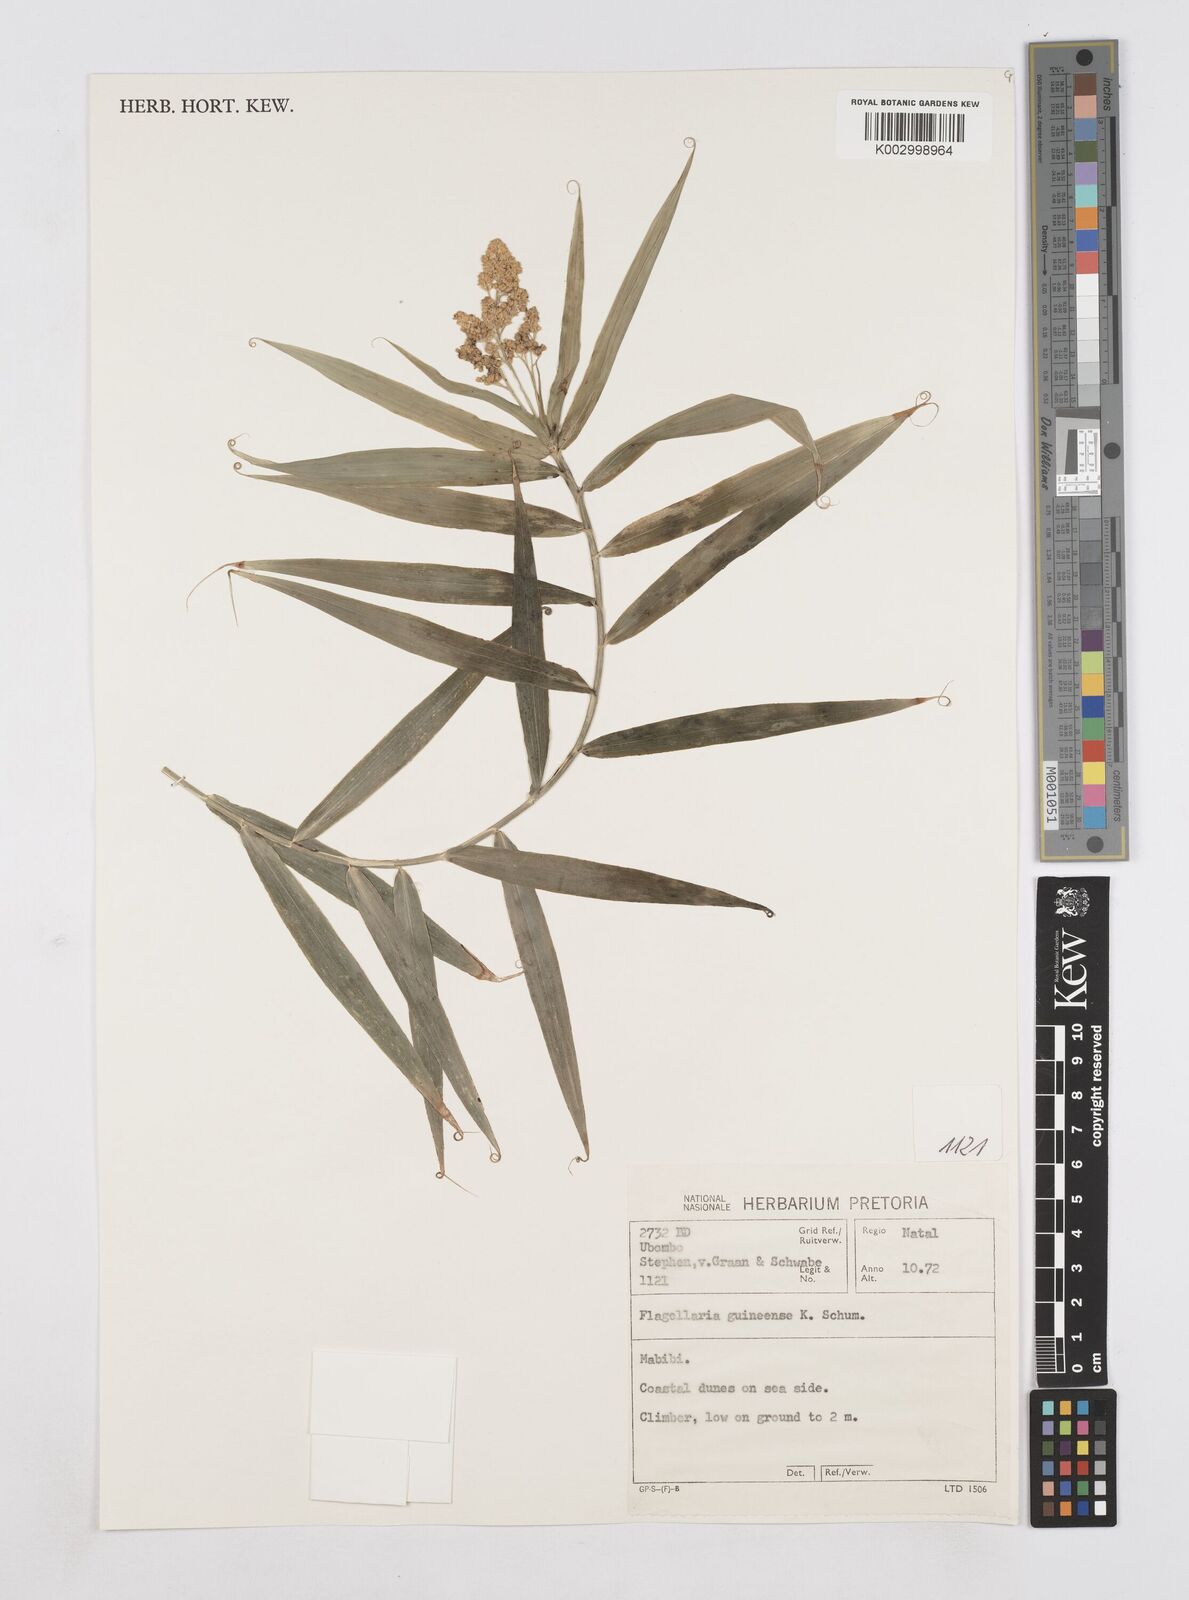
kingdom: Plantae
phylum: Tracheophyta
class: Liliopsida
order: Poales
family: Flagellariaceae
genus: Flagellaria
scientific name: Flagellaria guineensis
